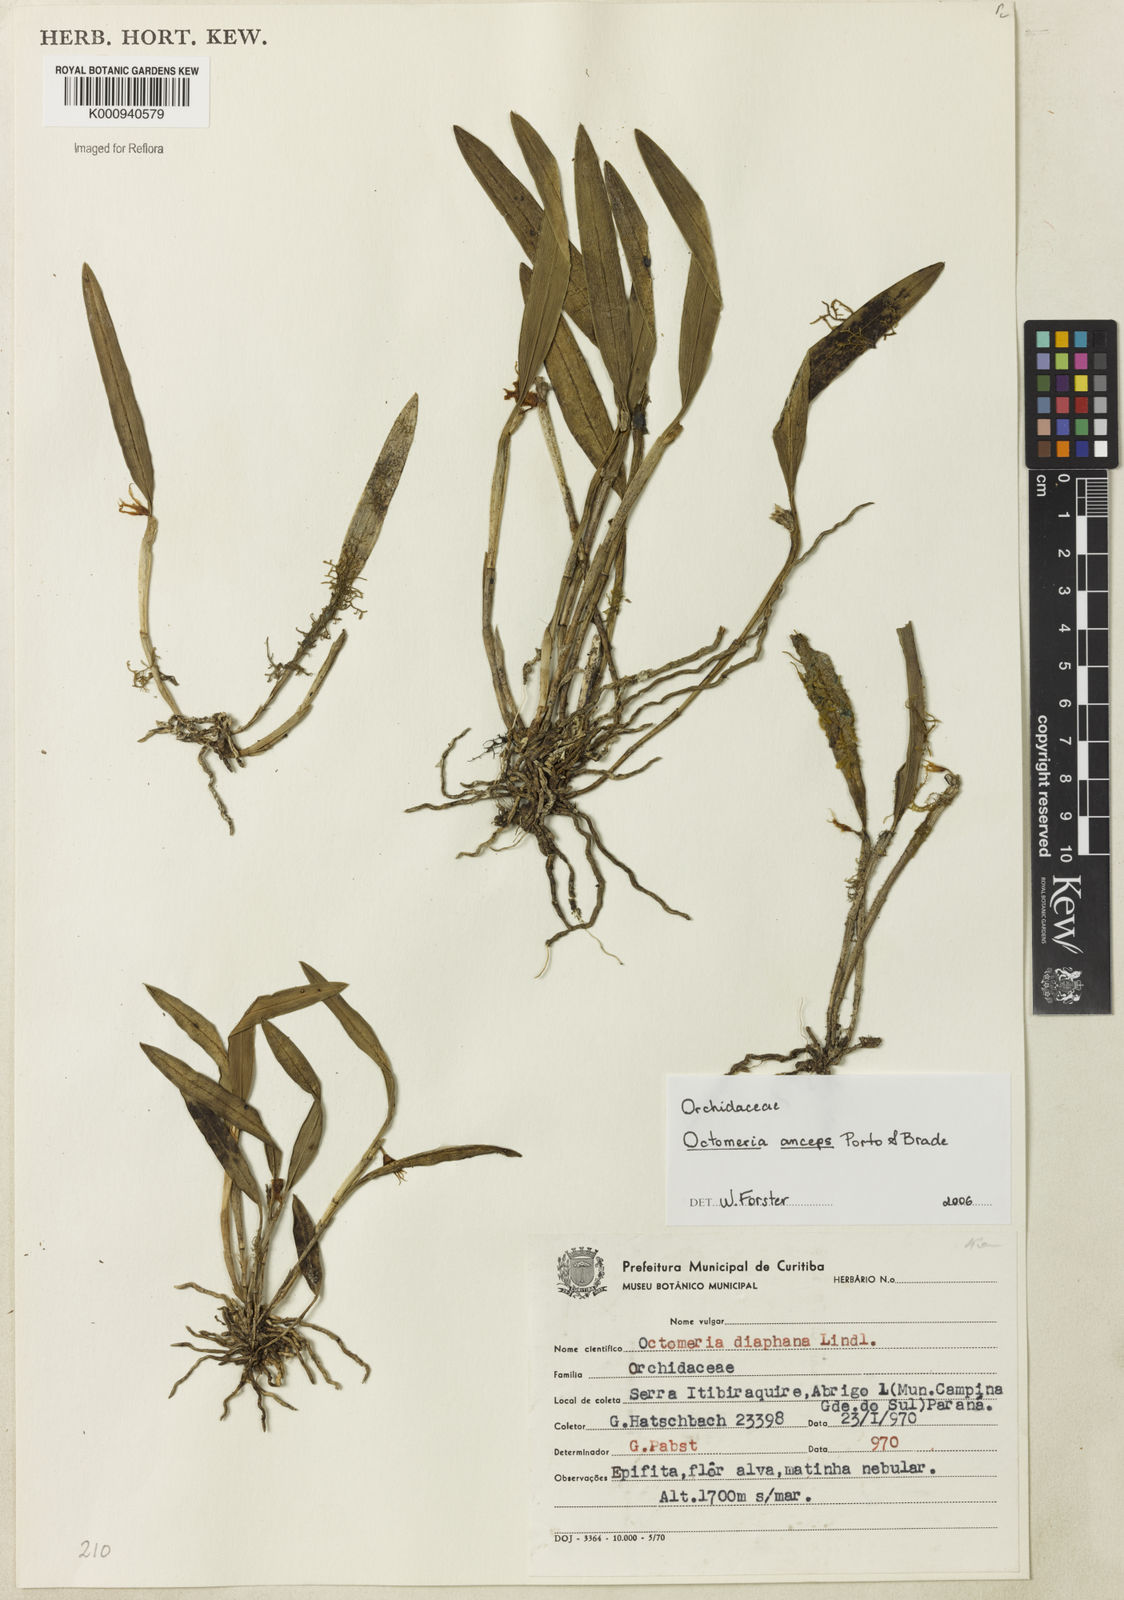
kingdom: Plantae
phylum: Tracheophyta
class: Liliopsida
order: Asparagales
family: Orchidaceae
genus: Octomeria
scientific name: Octomeria anceps
